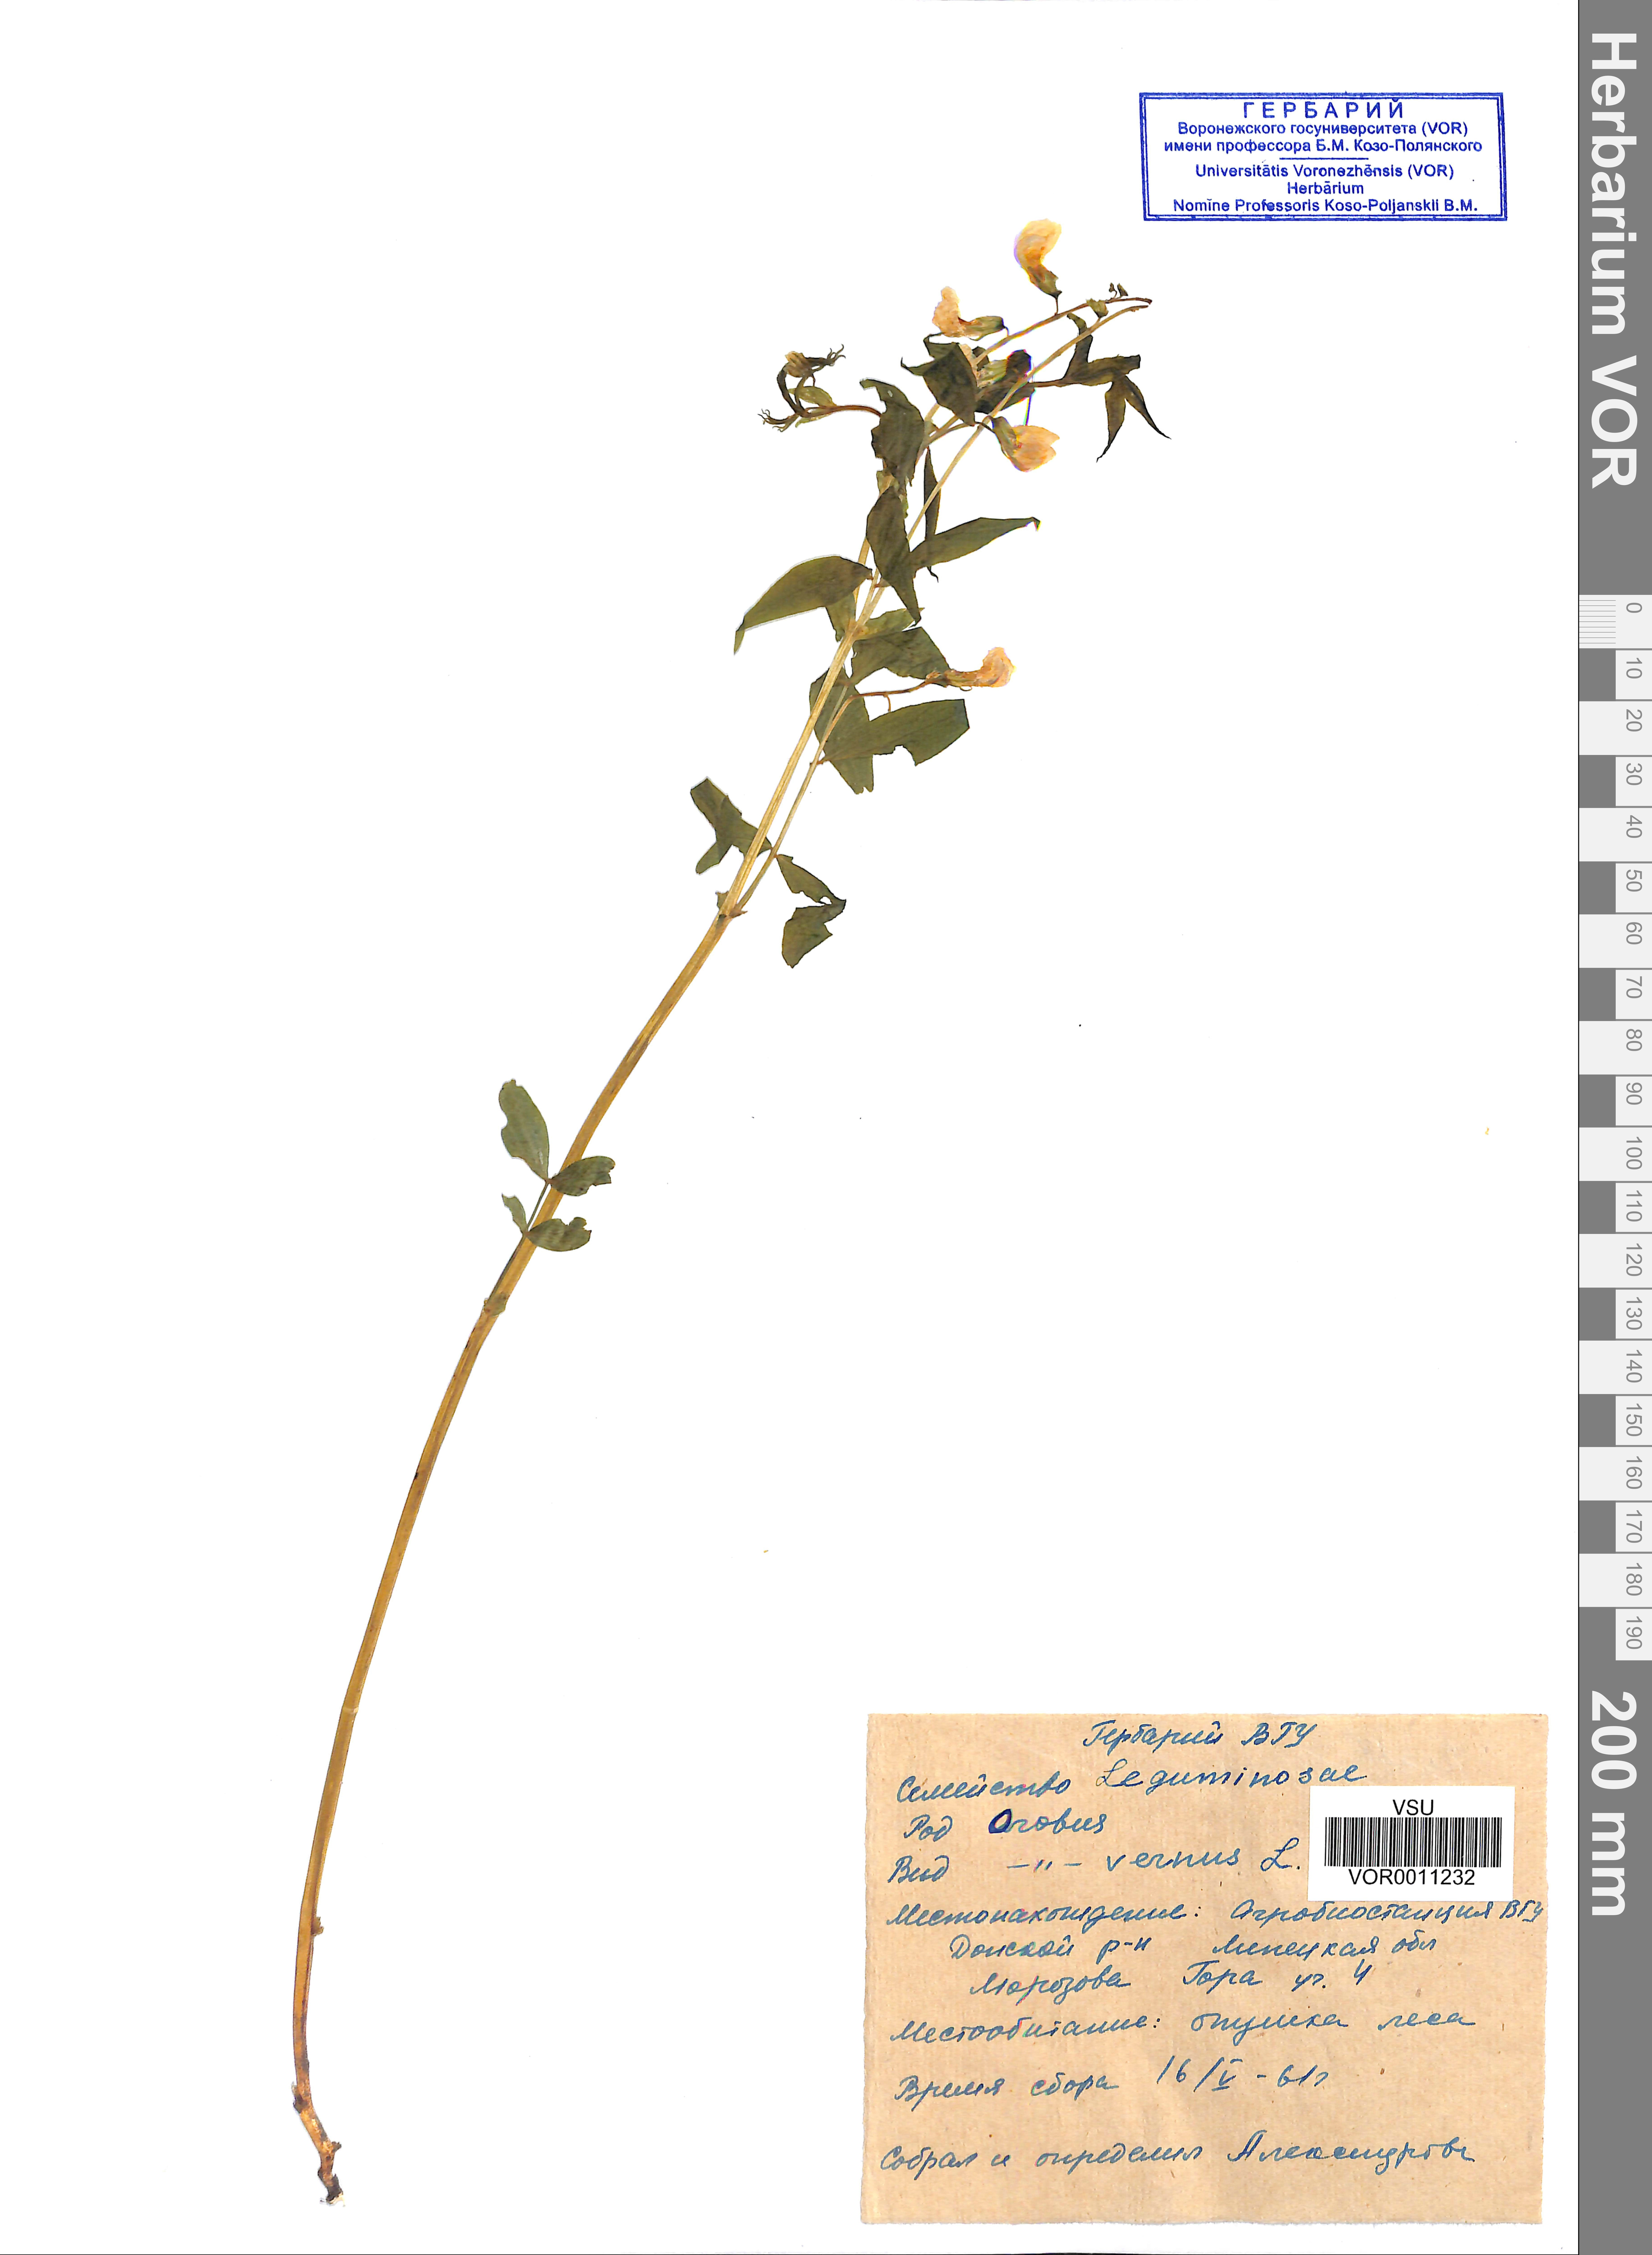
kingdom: Plantae
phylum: Tracheophyta
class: Magnoliopsida
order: Fabales
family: Fabaceae
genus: Lathyrus
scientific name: Lathyrus vernus
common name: Spring pea
